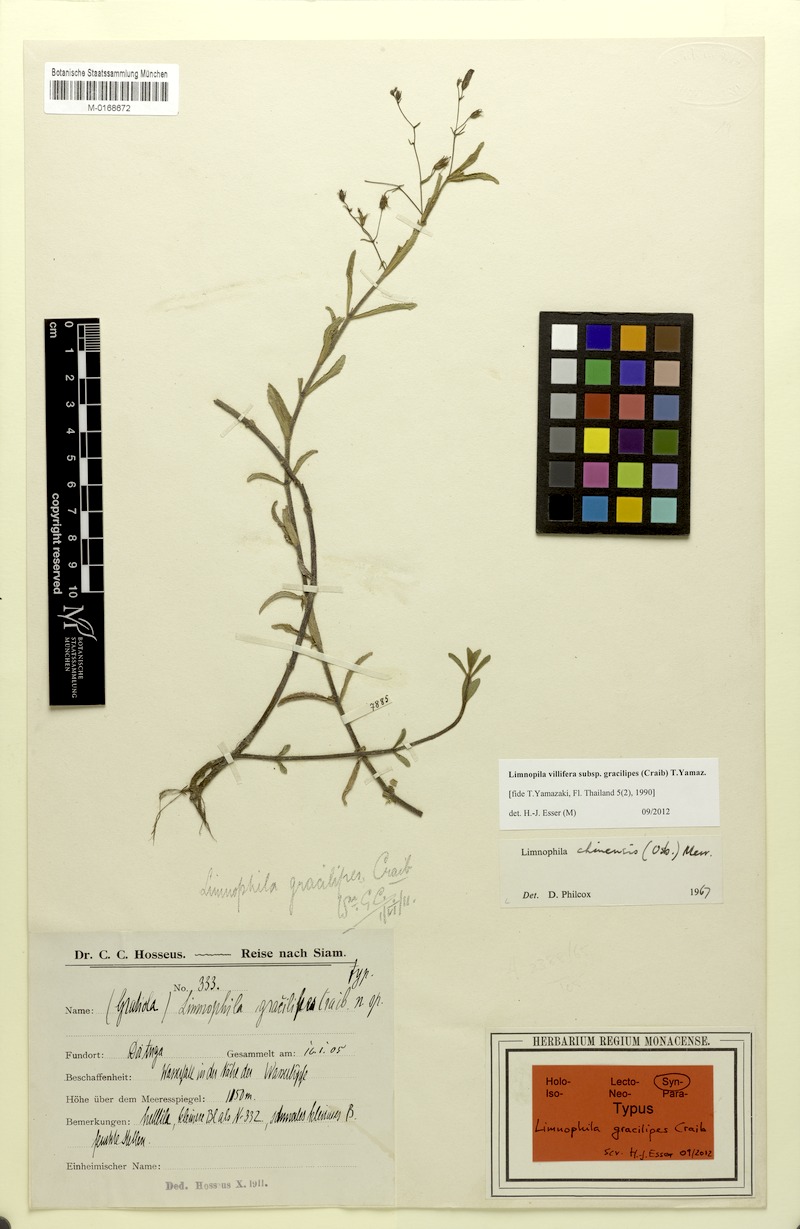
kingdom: Plantae
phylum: Tracheophyta
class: Magnoliopsida
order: Lamiales
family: Plantaginaceae
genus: Limnophila
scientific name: Limnophila villifera
